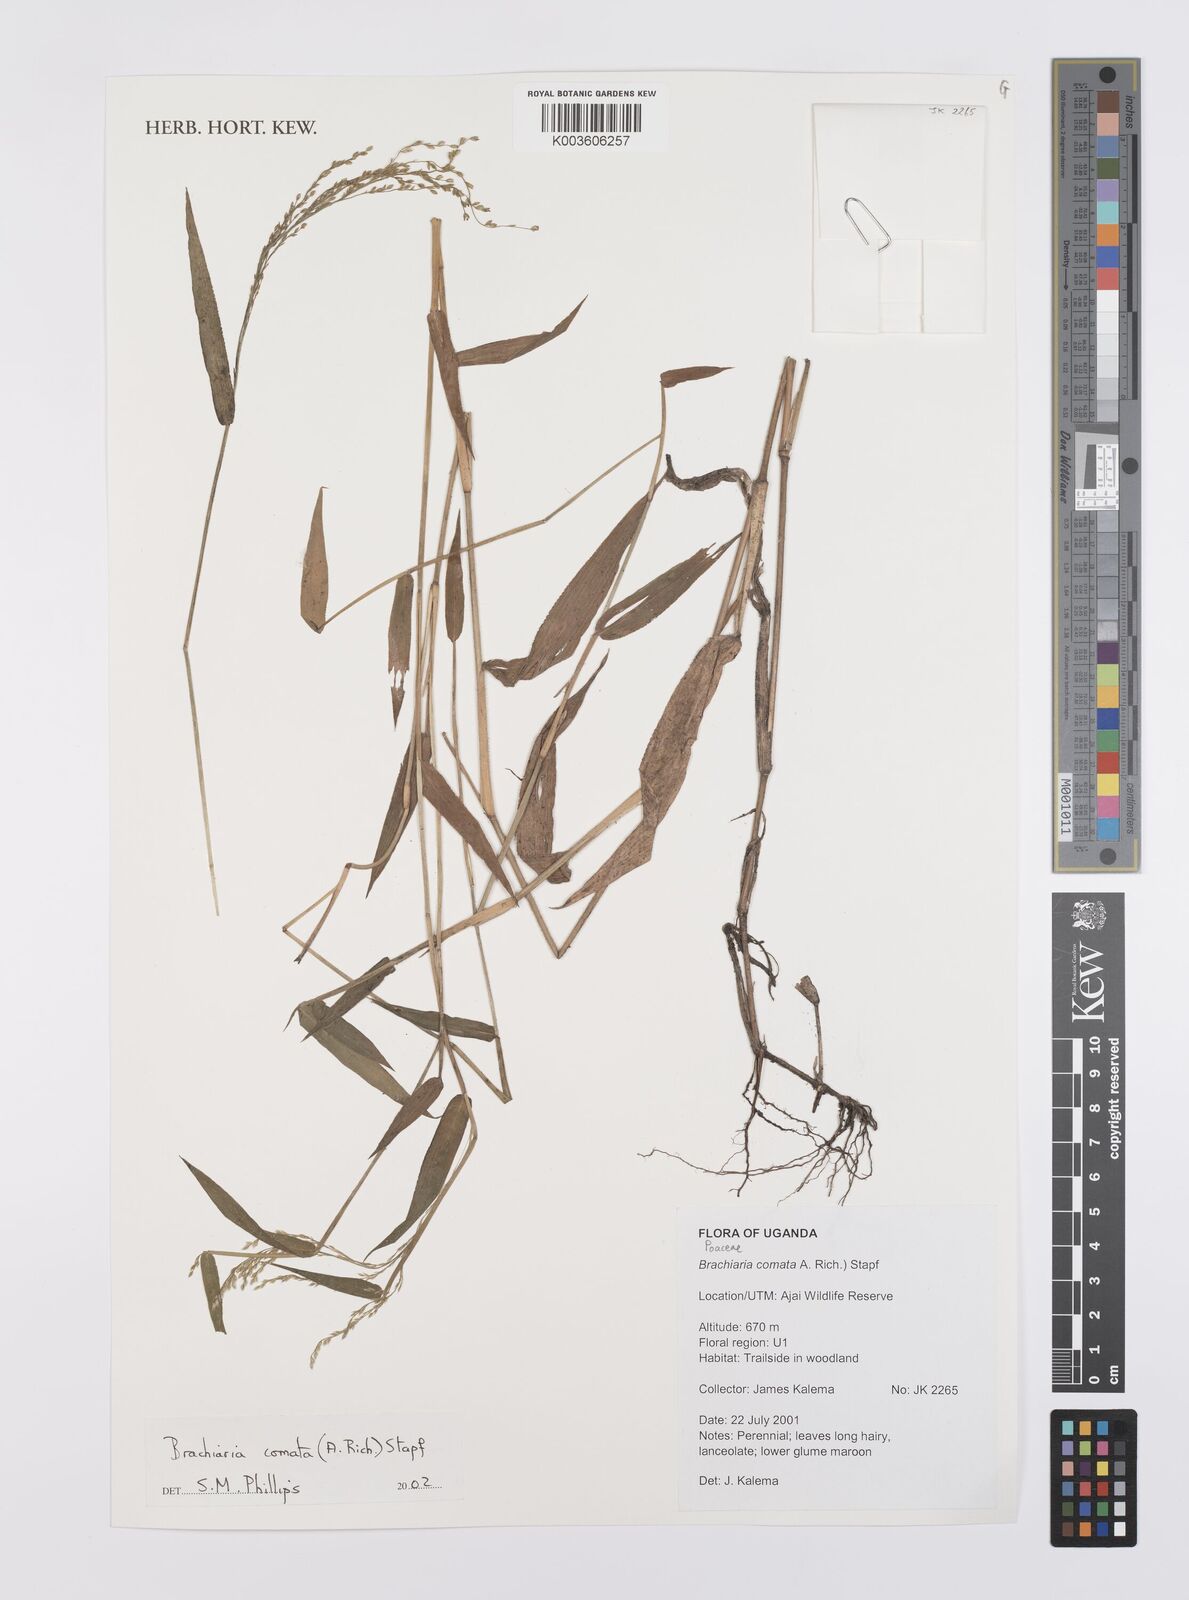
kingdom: Plantae
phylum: Tracheophyta
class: Liliopsida
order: Poales
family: Poaceae
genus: Urochloa
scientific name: Urochloa comata
